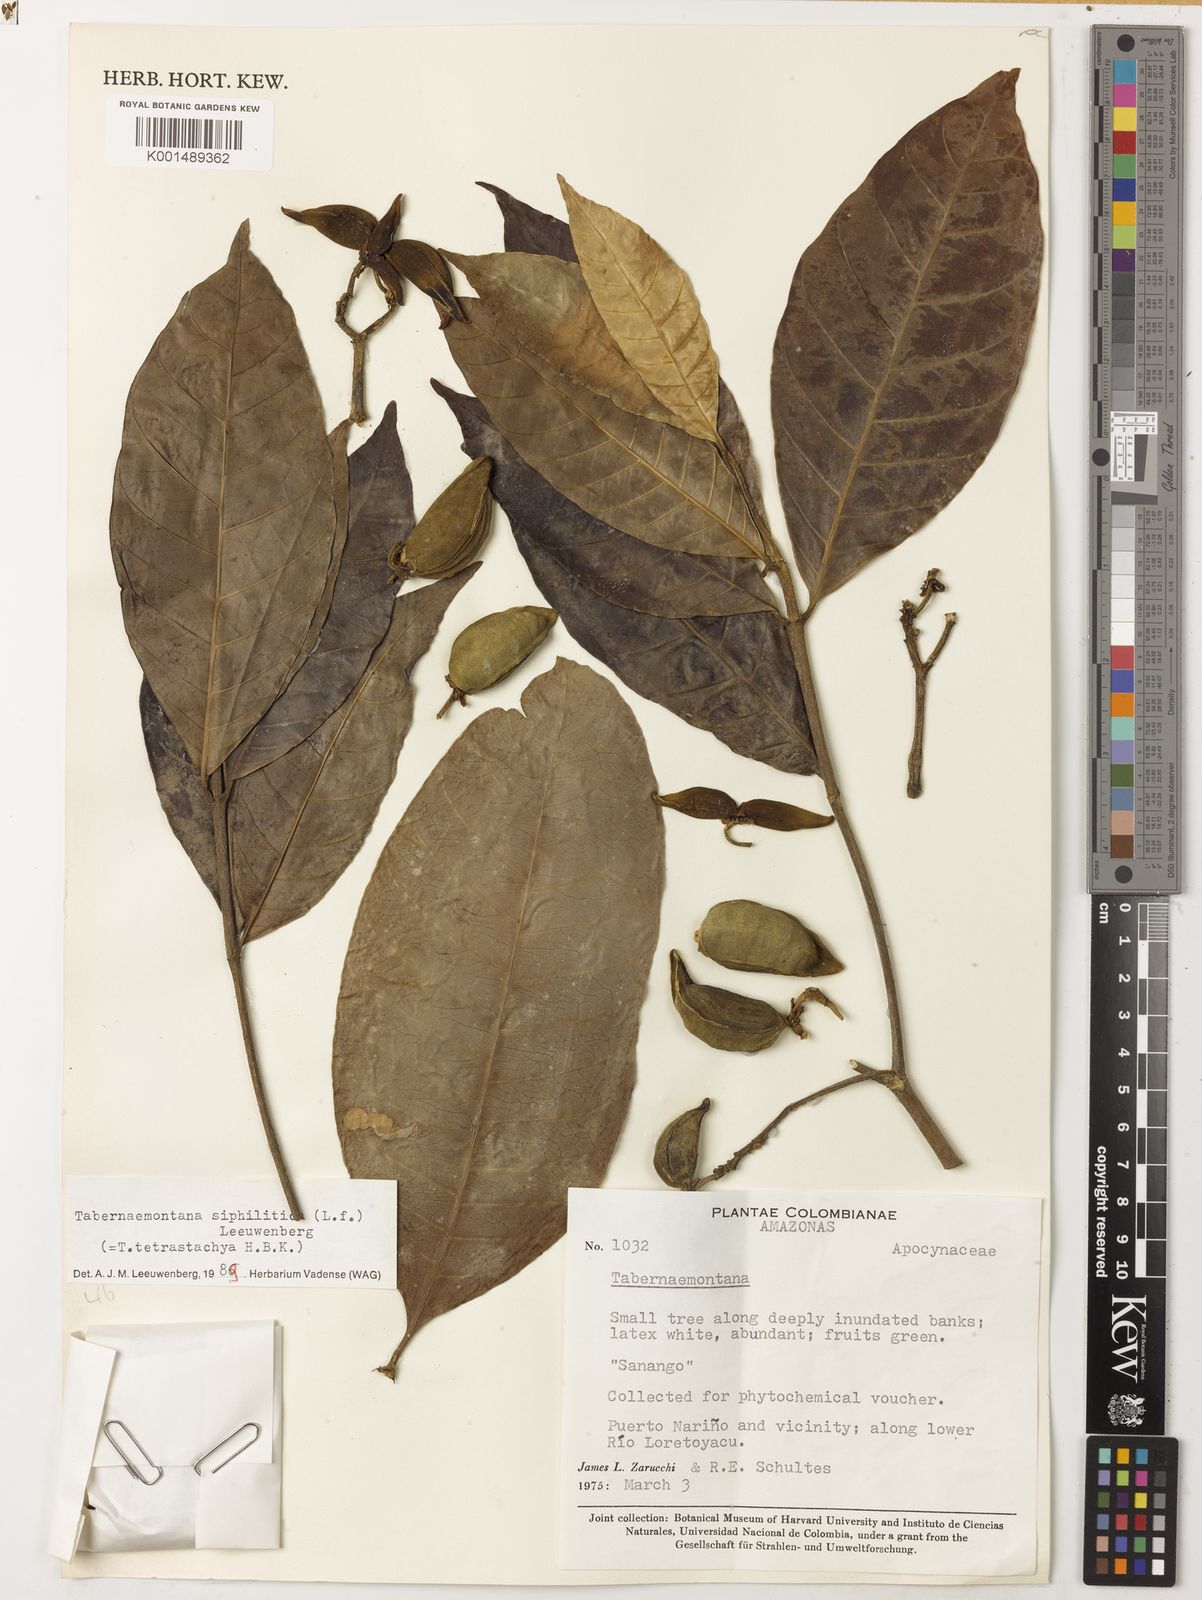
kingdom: Plantae
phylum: Tracheophyta
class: Magnoliopsida
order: Gentianales
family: Apocynaceae
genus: Tabernaemontana
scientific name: Tabernaemontana siphilitica
